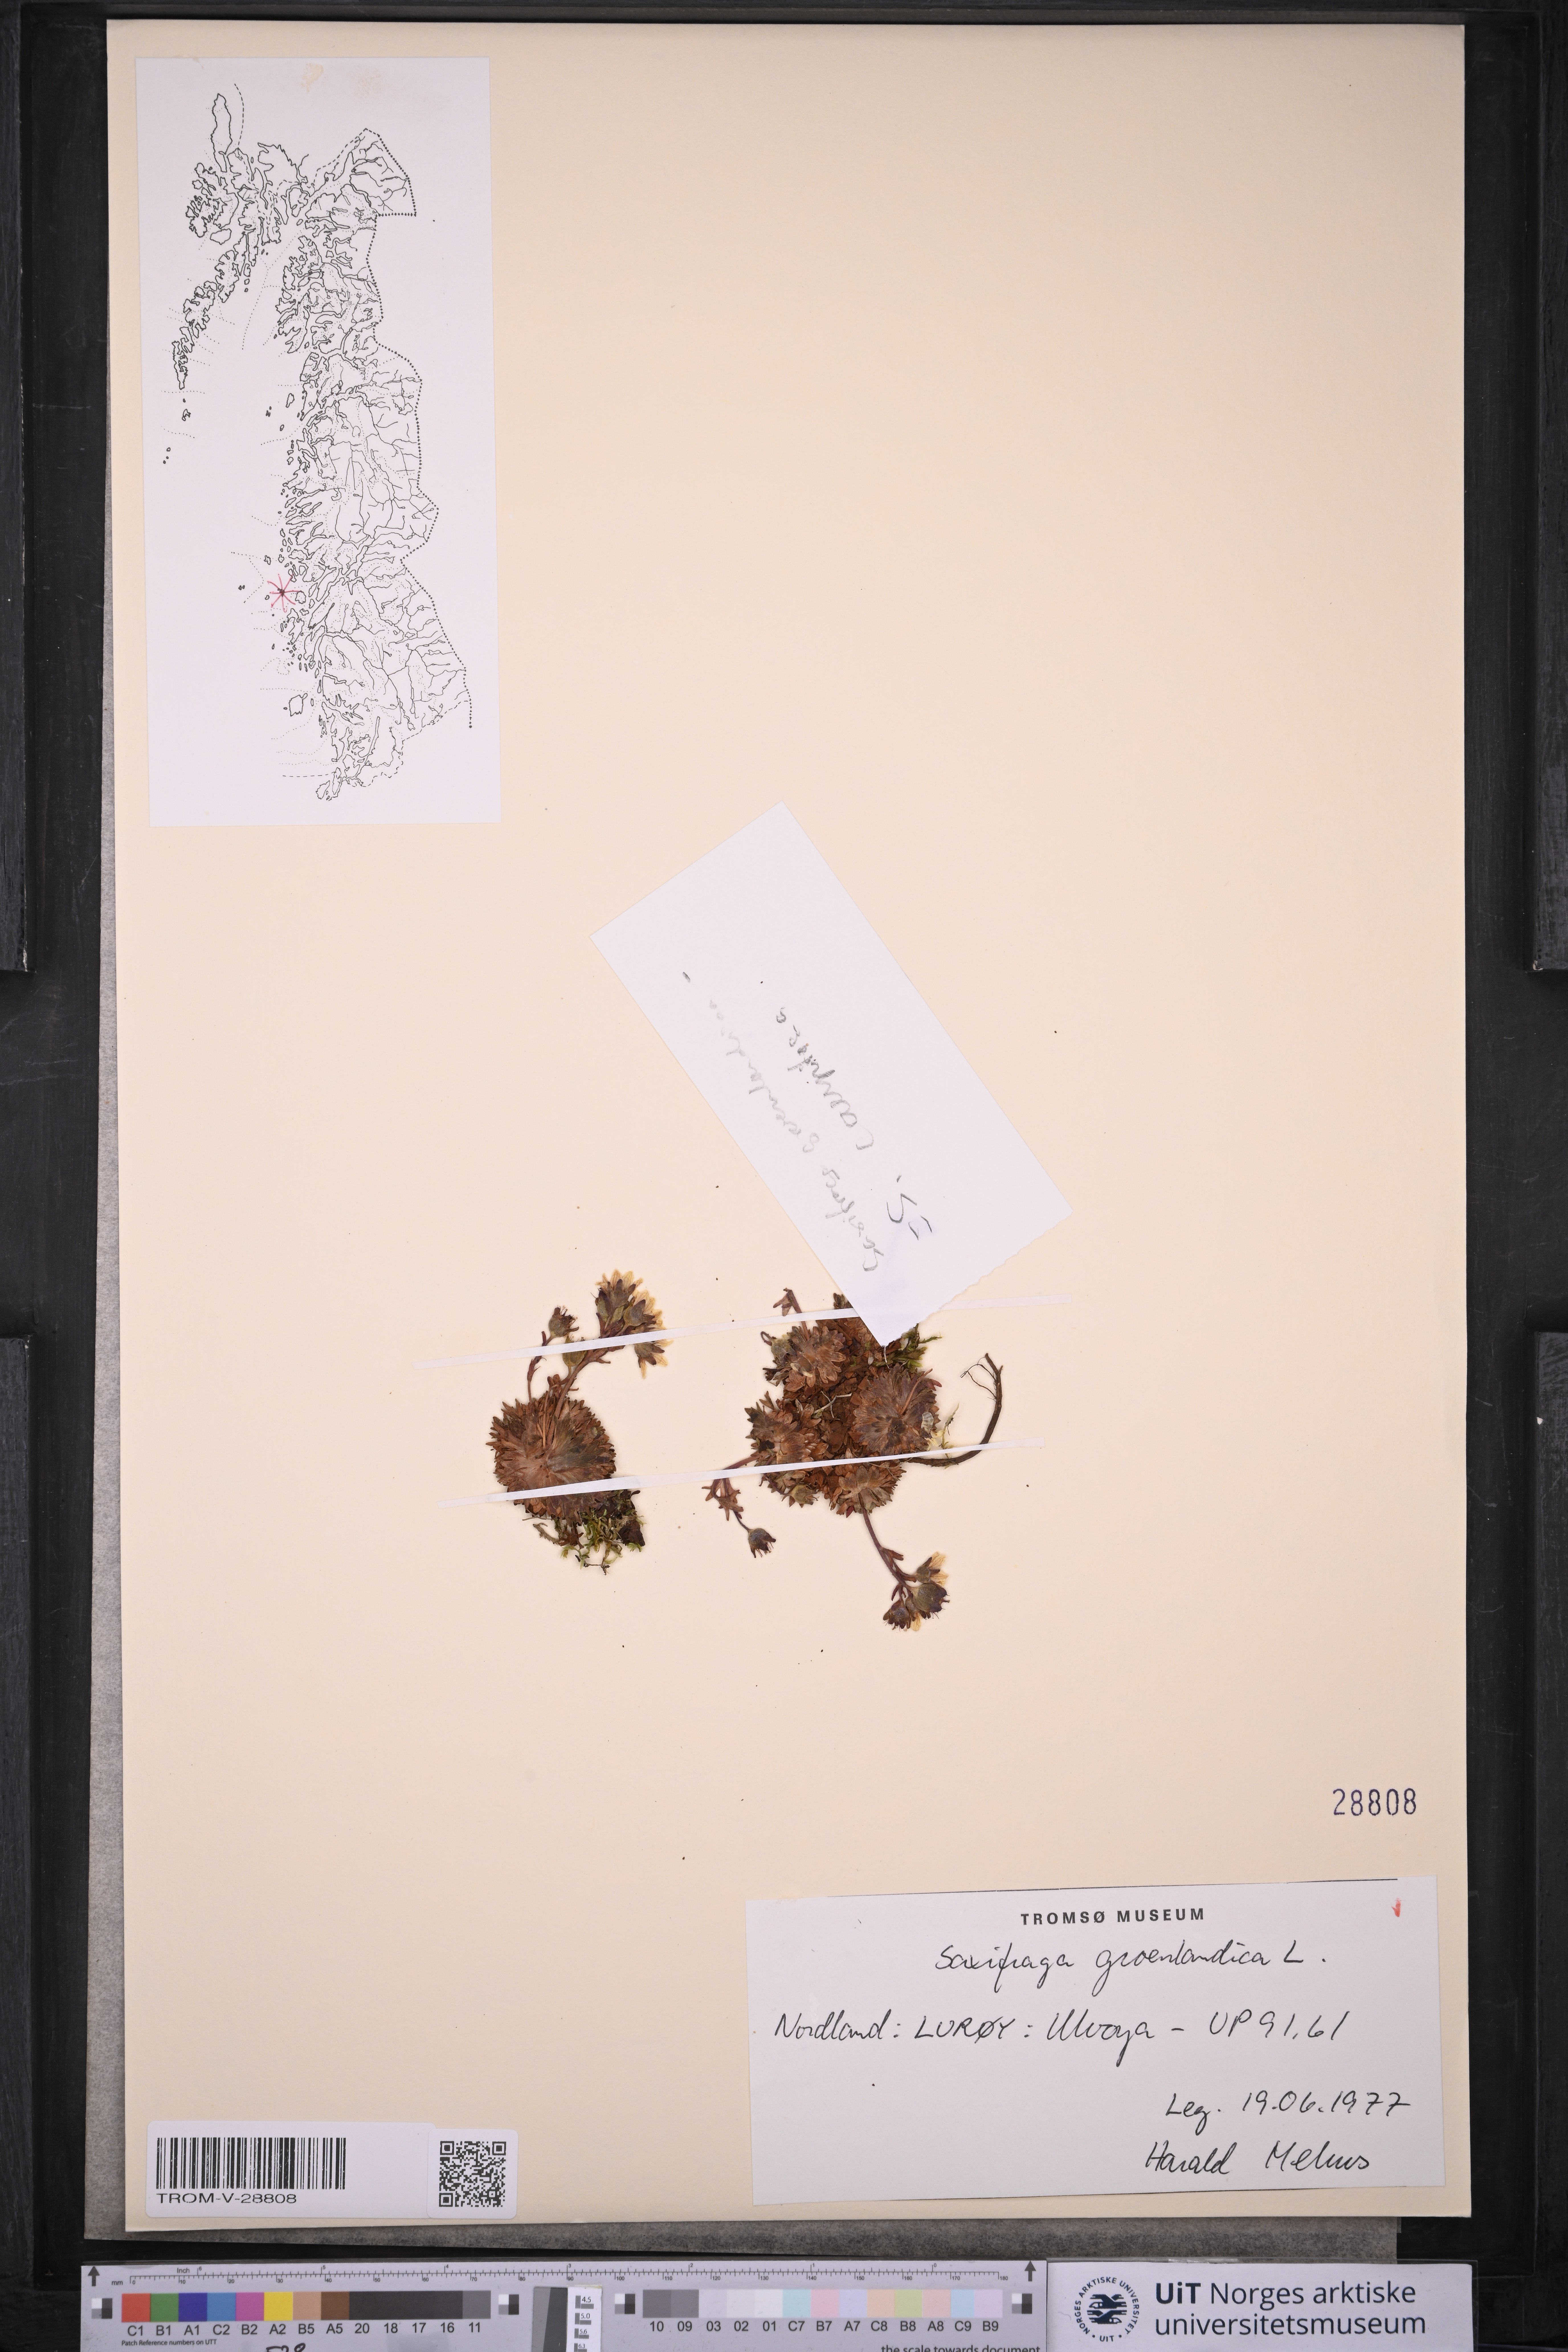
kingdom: Plantae
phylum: Tracheophyta
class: Magnoliopsida
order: Saxifragales
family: Saxifragaceae
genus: Saxifraga
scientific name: Saxifraga cespitosa
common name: Tufted saxifrage
